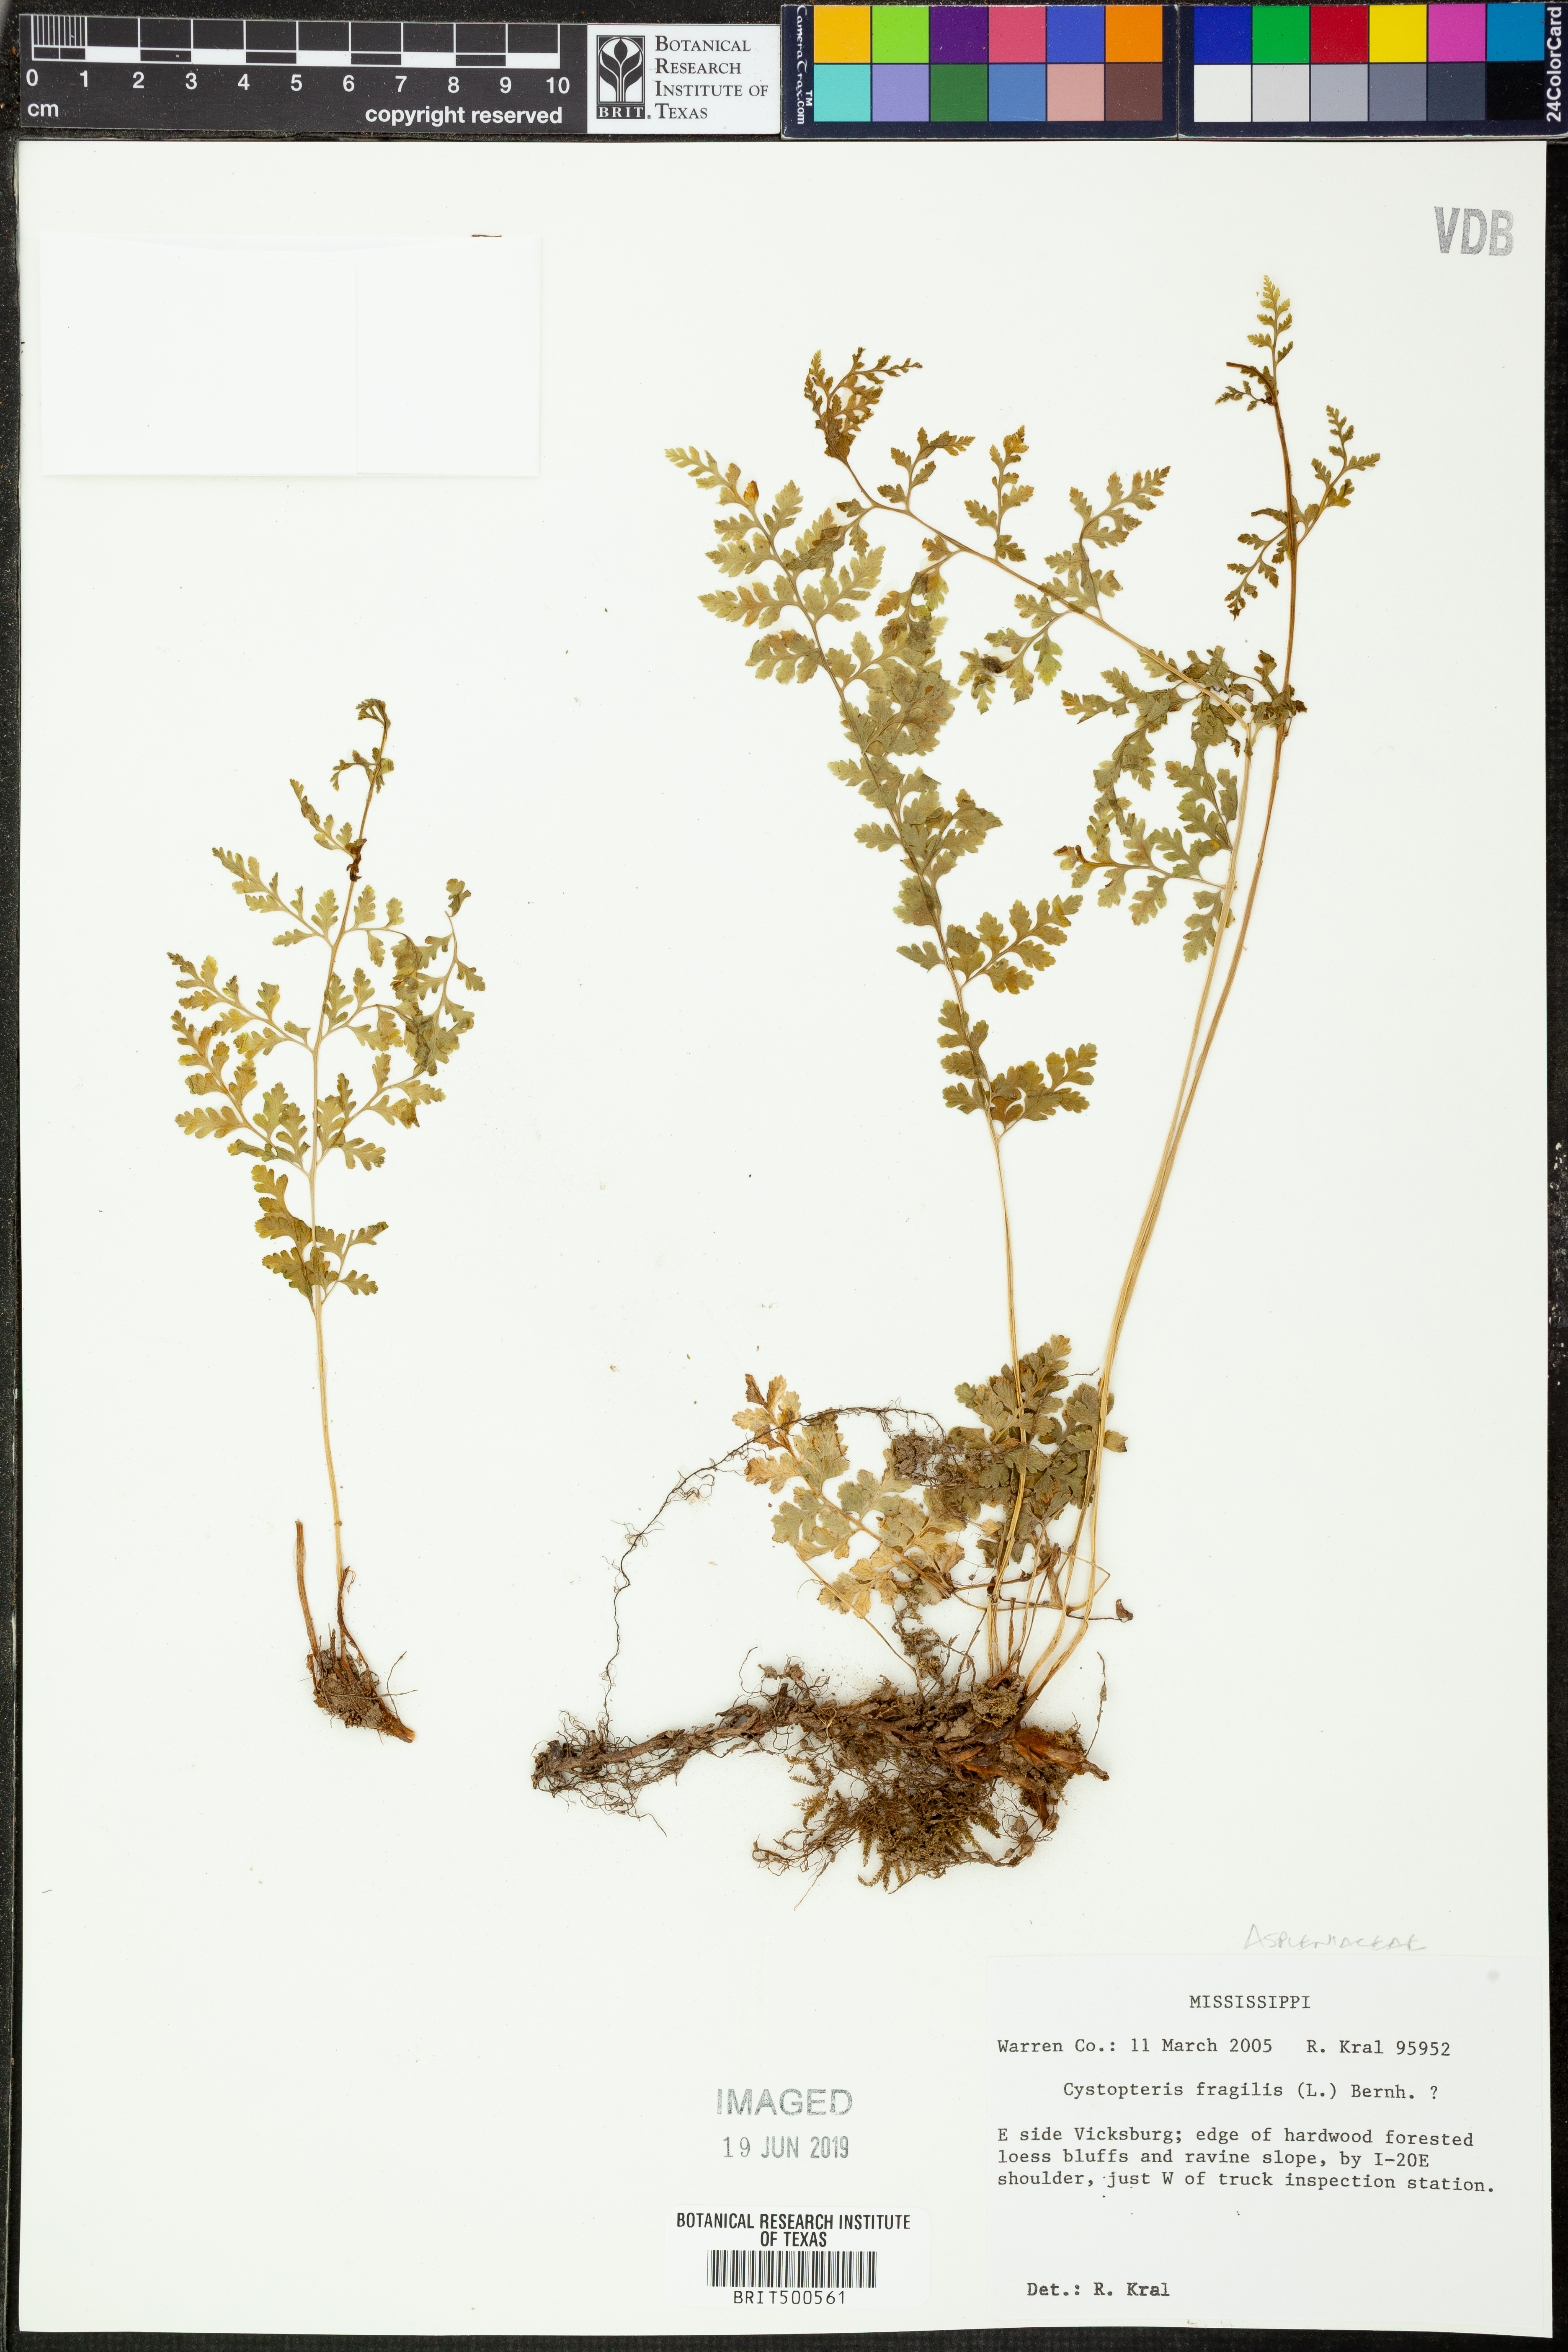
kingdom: Plantae
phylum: Tracheophyta
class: Polypodiopsida
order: Polypodiales
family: Cystopteridaceae
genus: Cystopteris
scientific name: Cystopteris fragilis
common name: Brittle bladder fern
